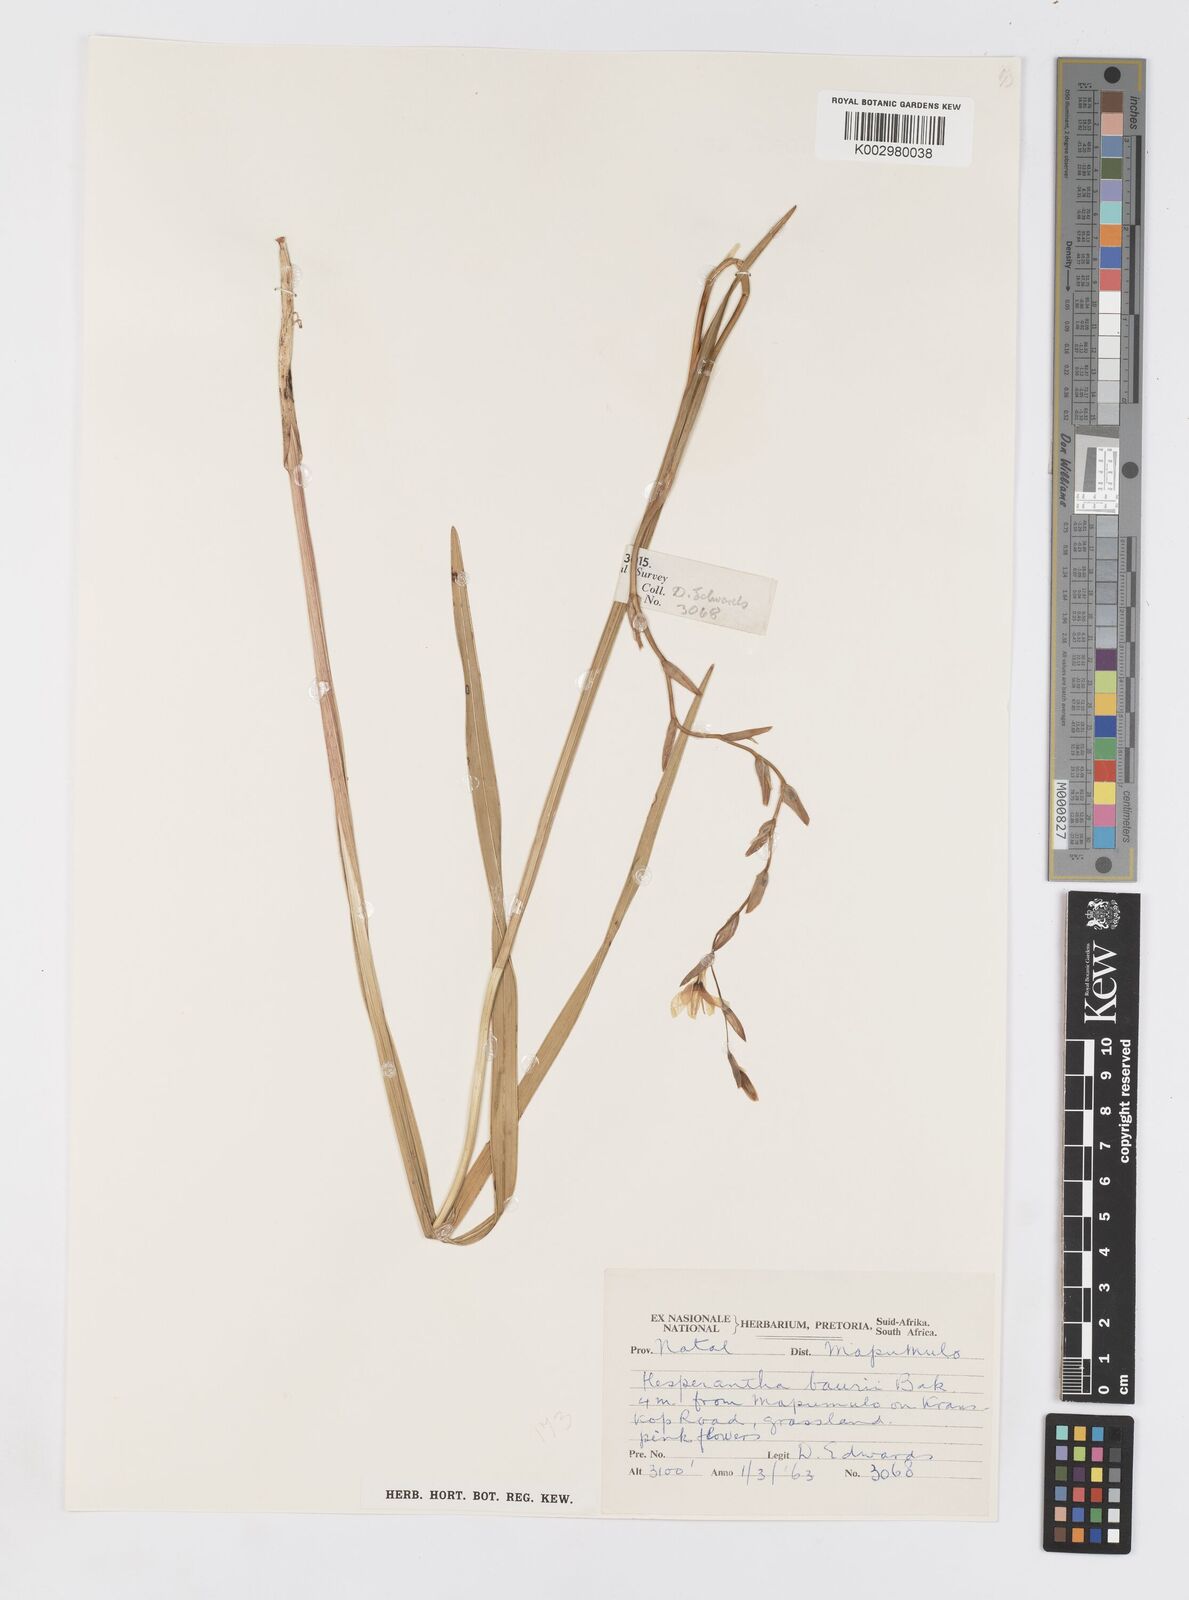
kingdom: Plantae
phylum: Tracheophyta
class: Liliopsida
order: Asparagales
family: Iridaceae
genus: Hesperantha
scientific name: Hesperantha baurii
